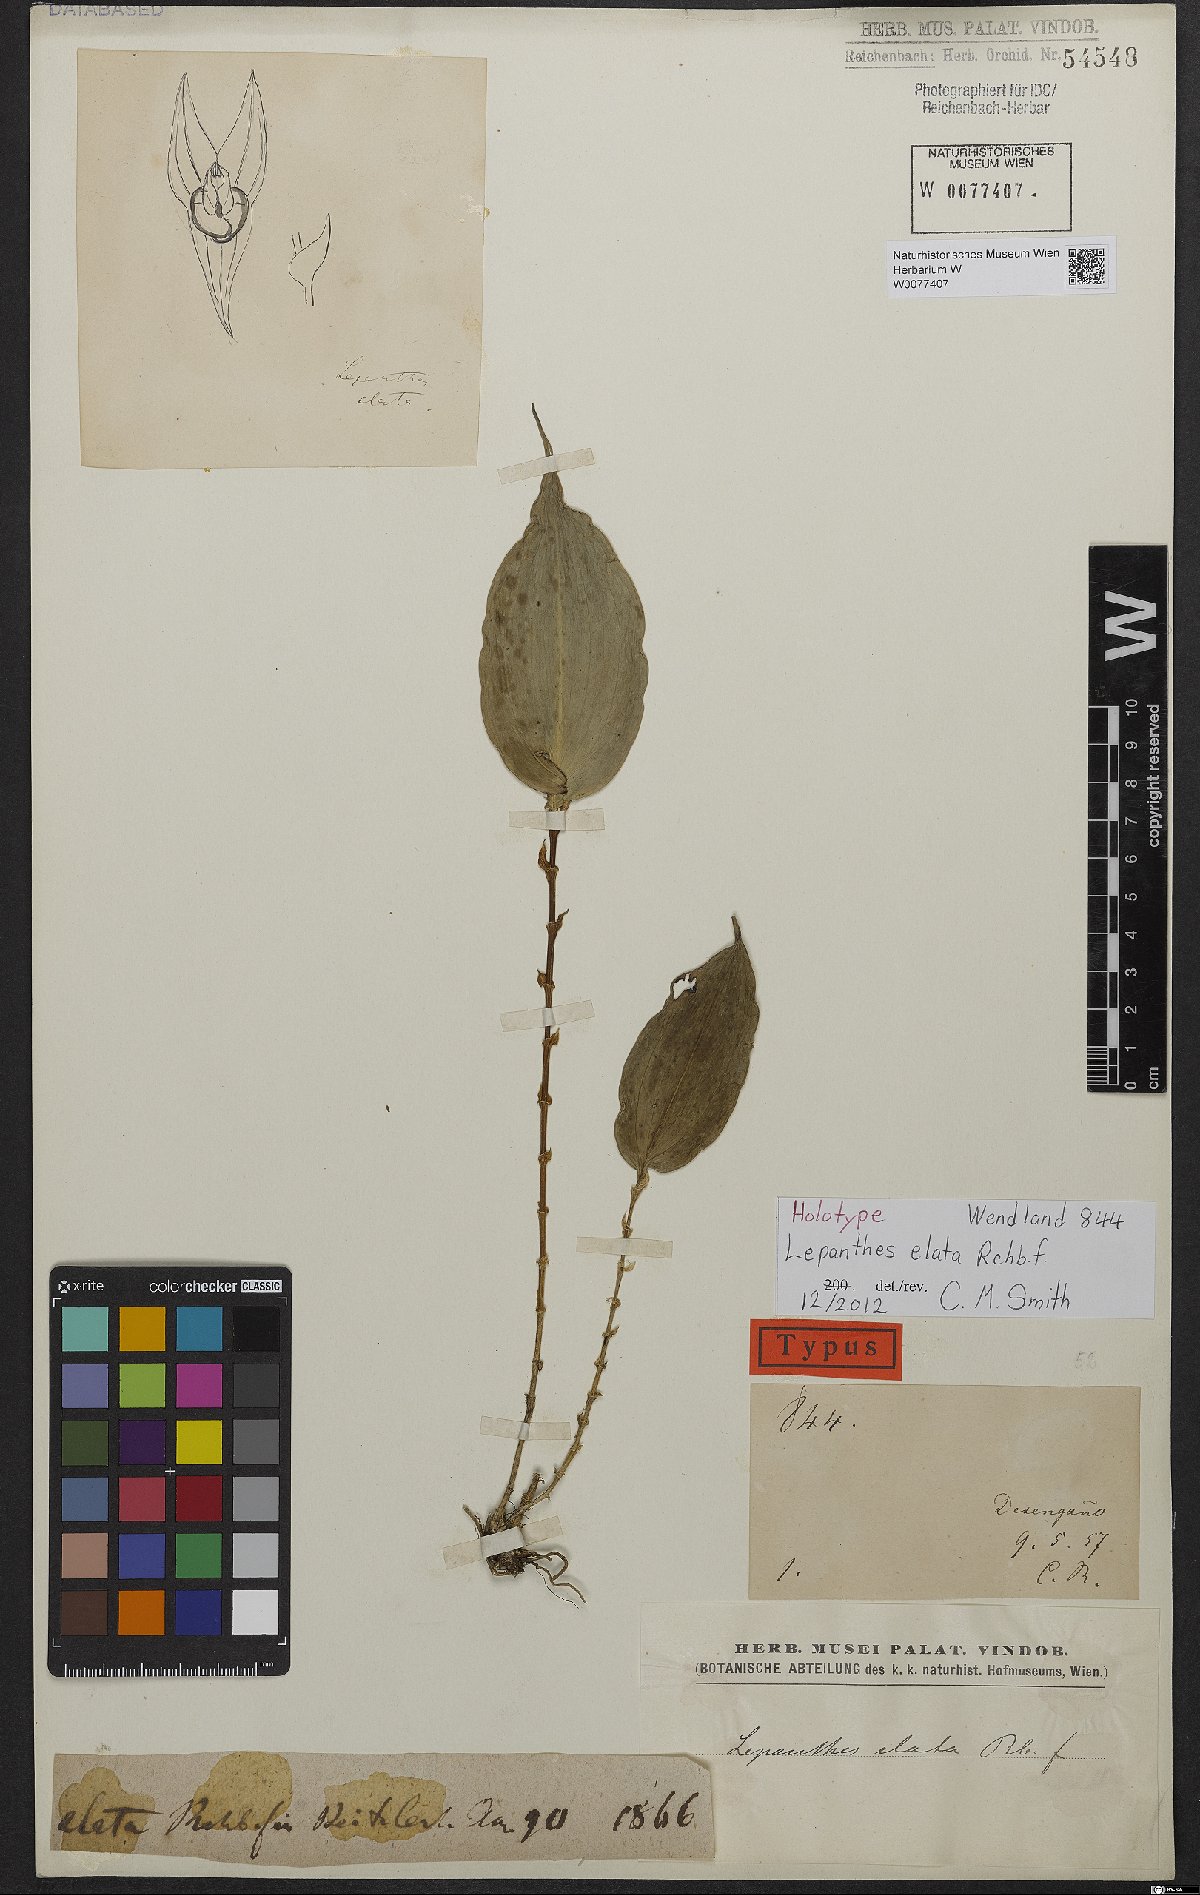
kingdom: Plantae
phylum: Tracheophyta
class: Liliopsida
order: Asparagales
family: Orchidaceae
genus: Lepanthes
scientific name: Lepanthes elata
